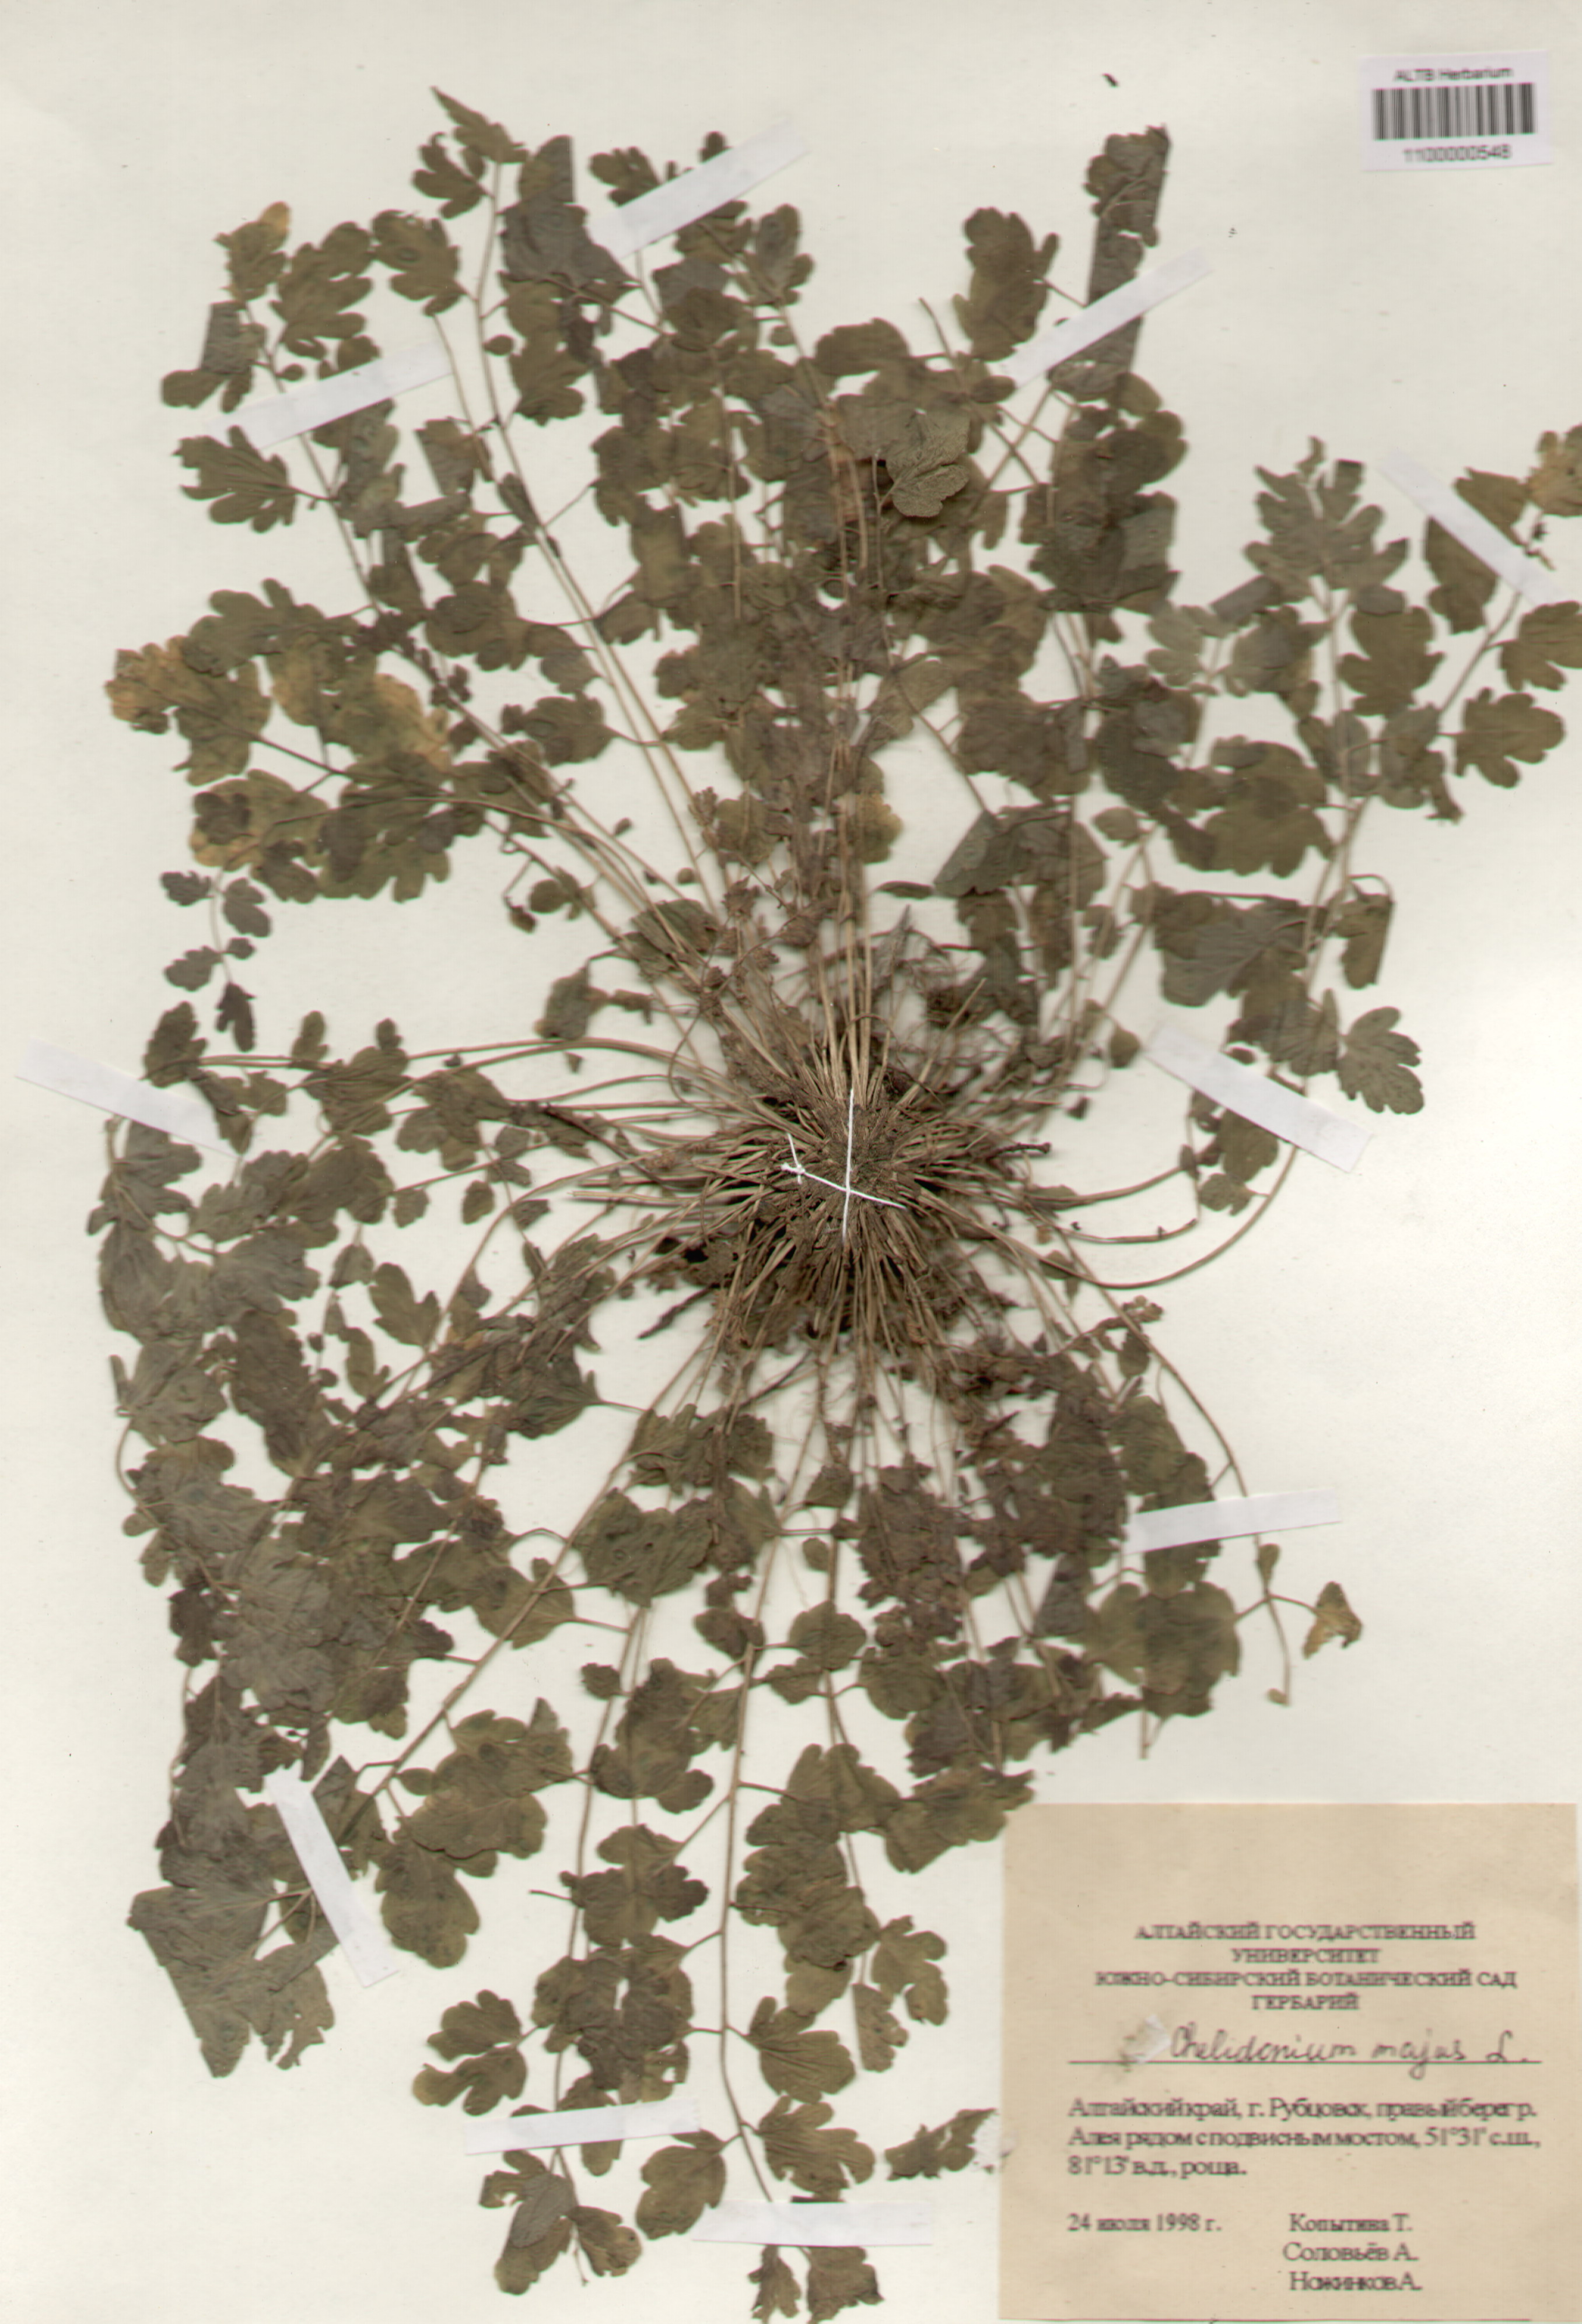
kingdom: Plantae
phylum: Tracheophyta
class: Magnoliopsida
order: Ranunculales
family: Papaveraceae
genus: Chelidonium
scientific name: Chelidonium majus
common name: Greater celandine
